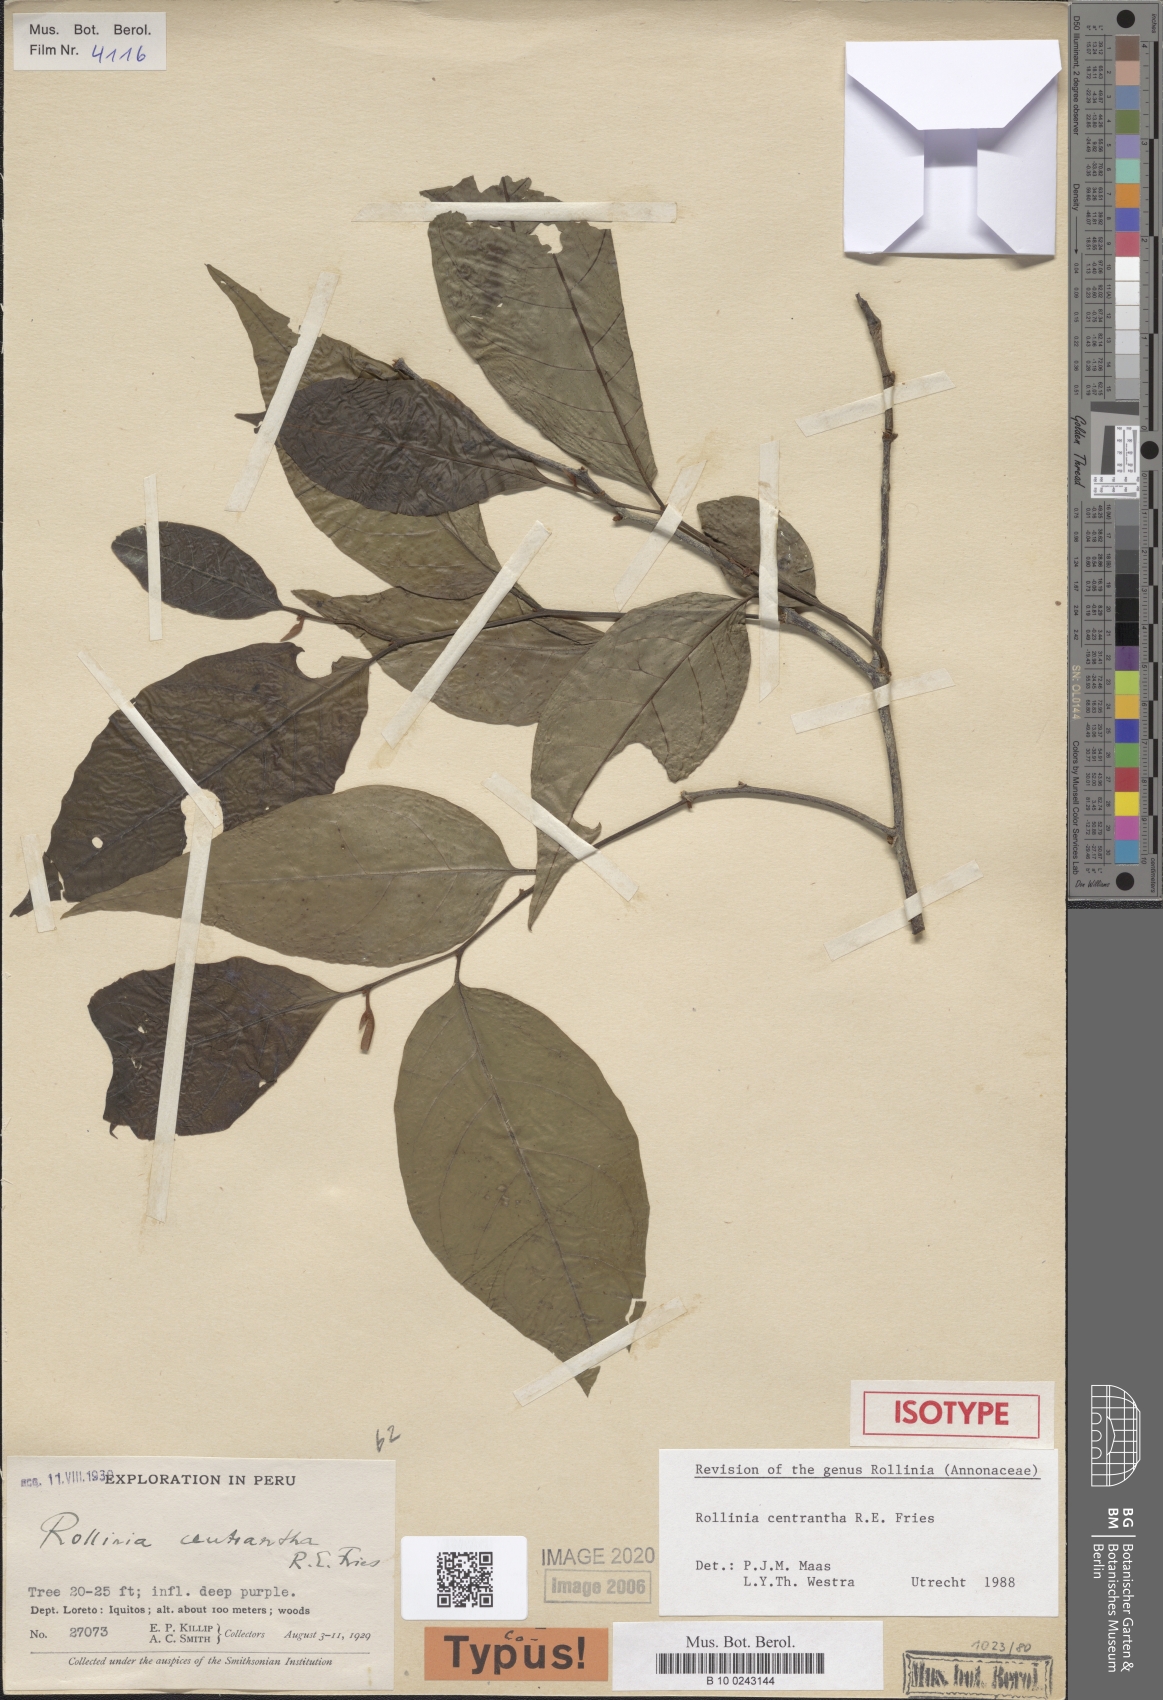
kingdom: Plantae
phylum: Tracheophyta
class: Magnoliopsida
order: Magnoliales
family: Annonaceae
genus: Annona
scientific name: Annona centrantha
